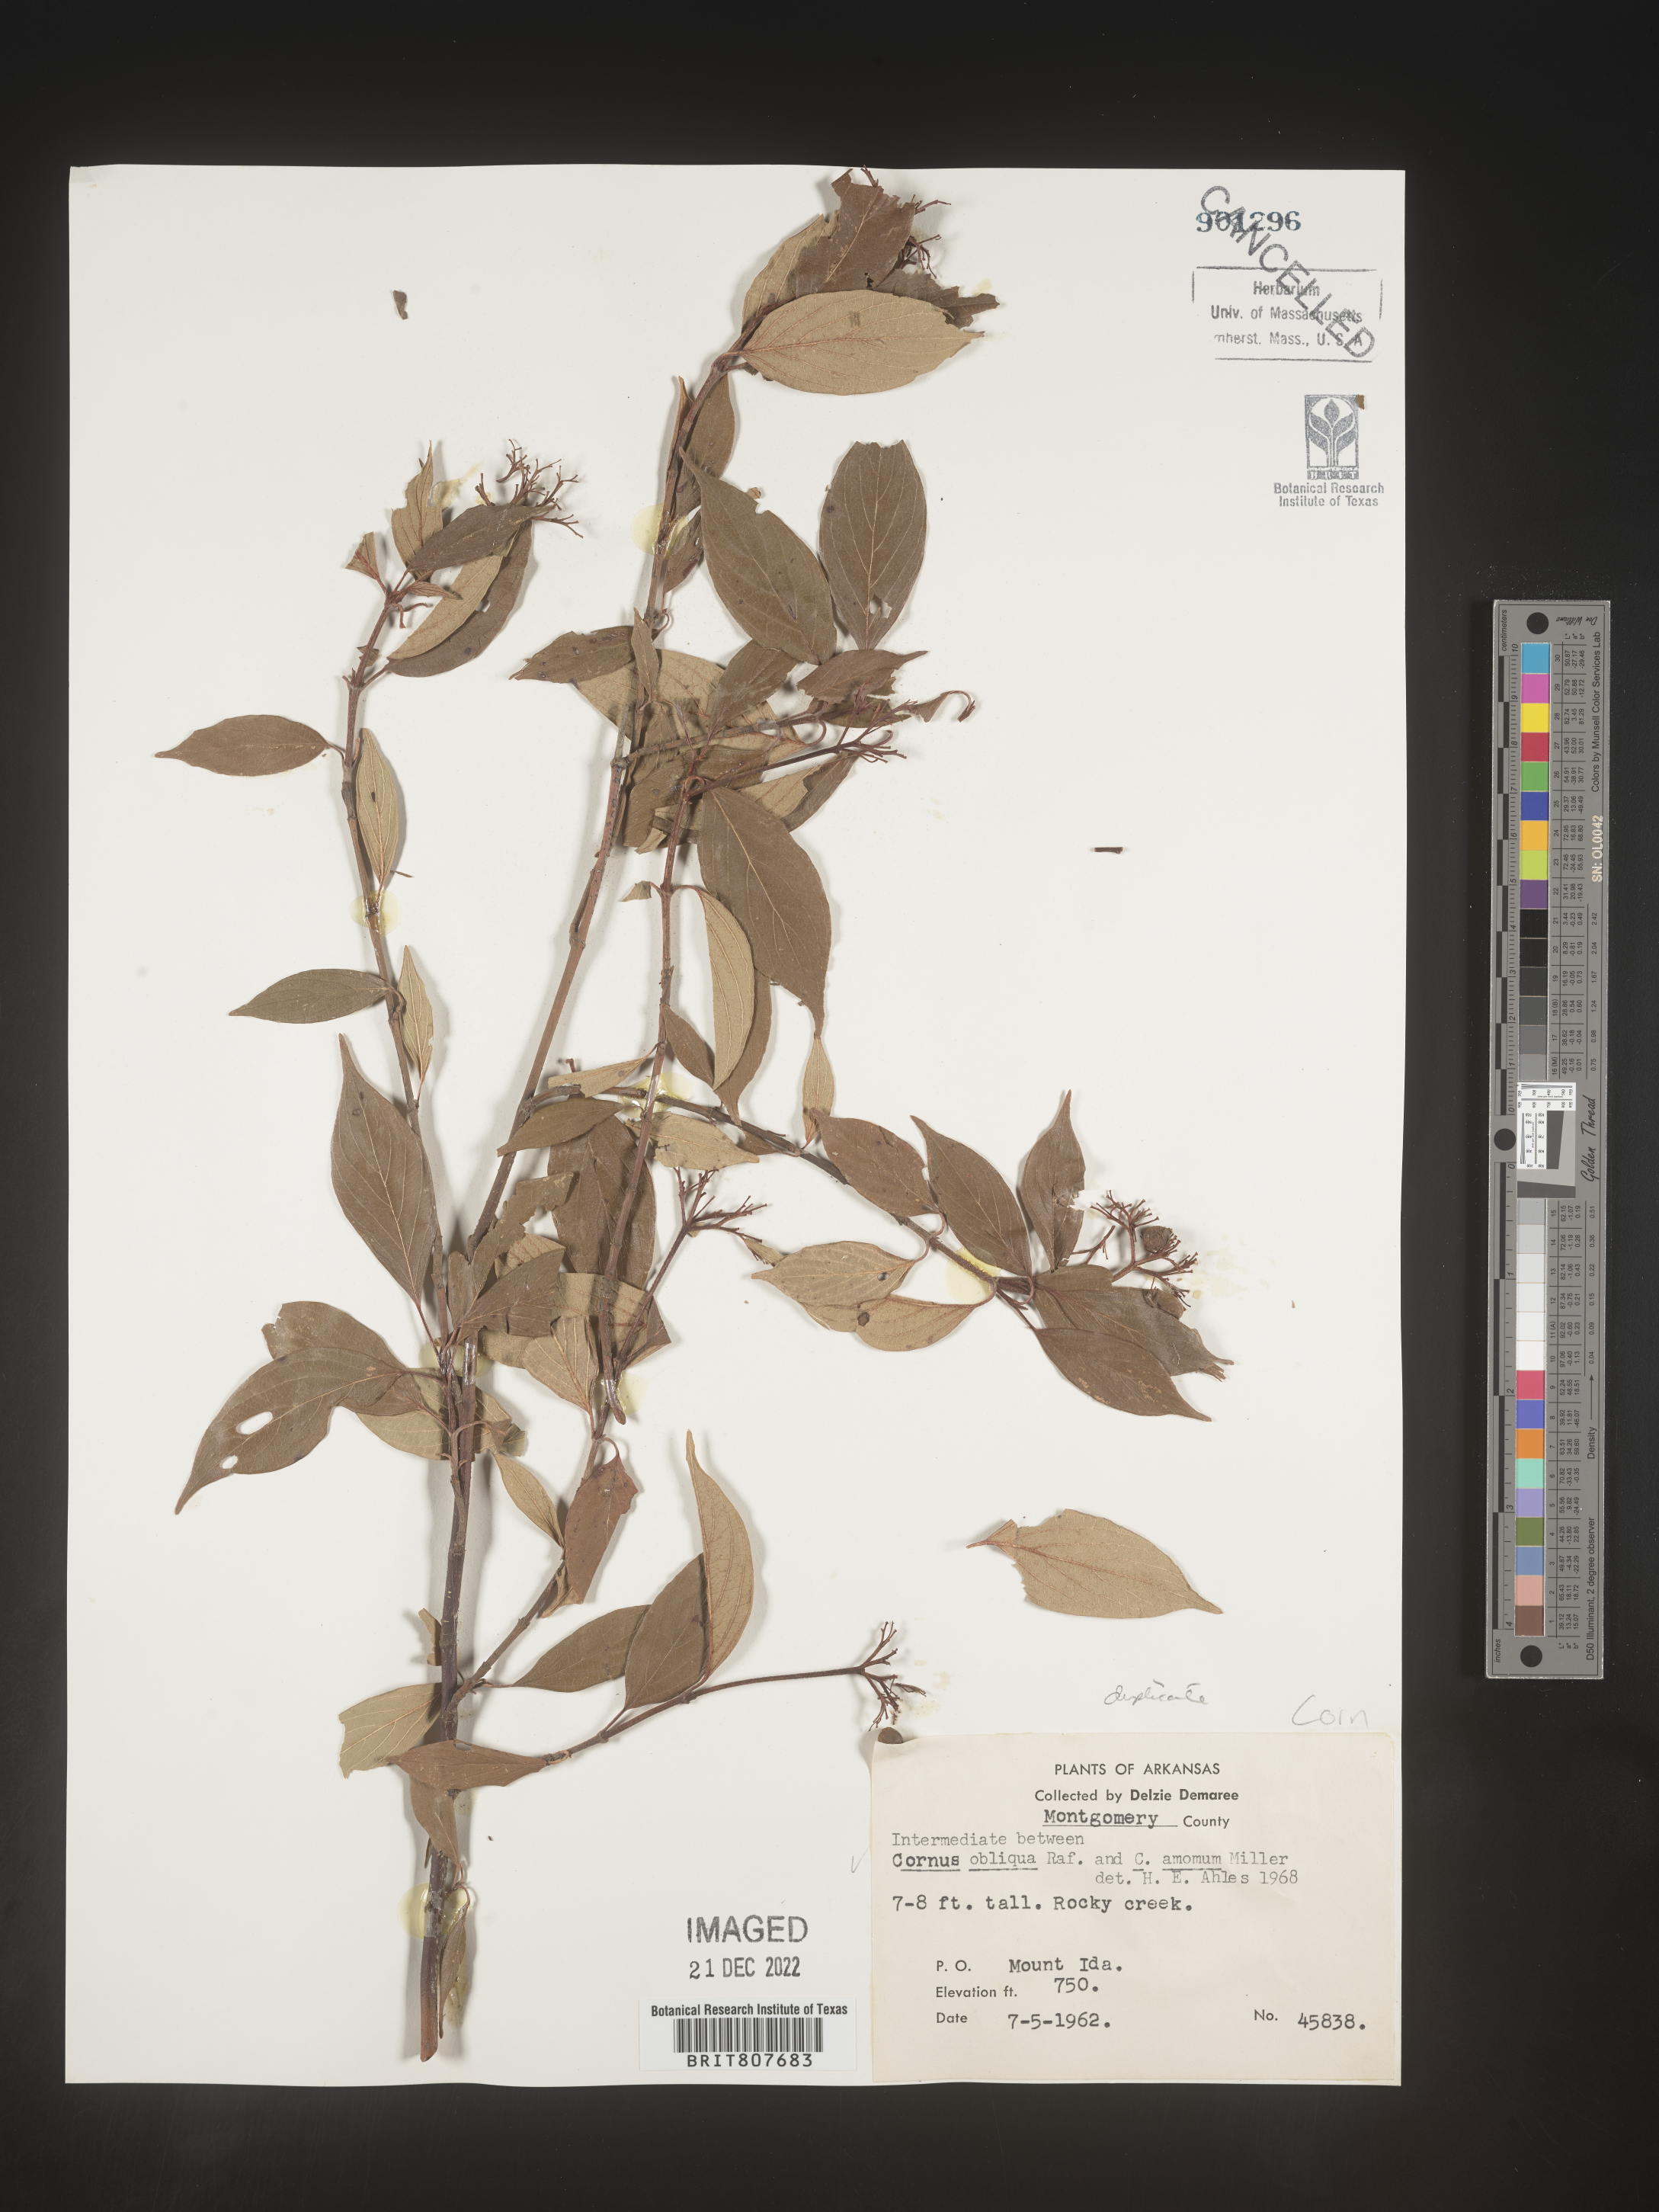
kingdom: Plantae
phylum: Tracheophyta
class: Magnoliopsida
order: Cornales
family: Cornaceae
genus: Cornus
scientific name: Cornus obliqua
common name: Pale dogwood
